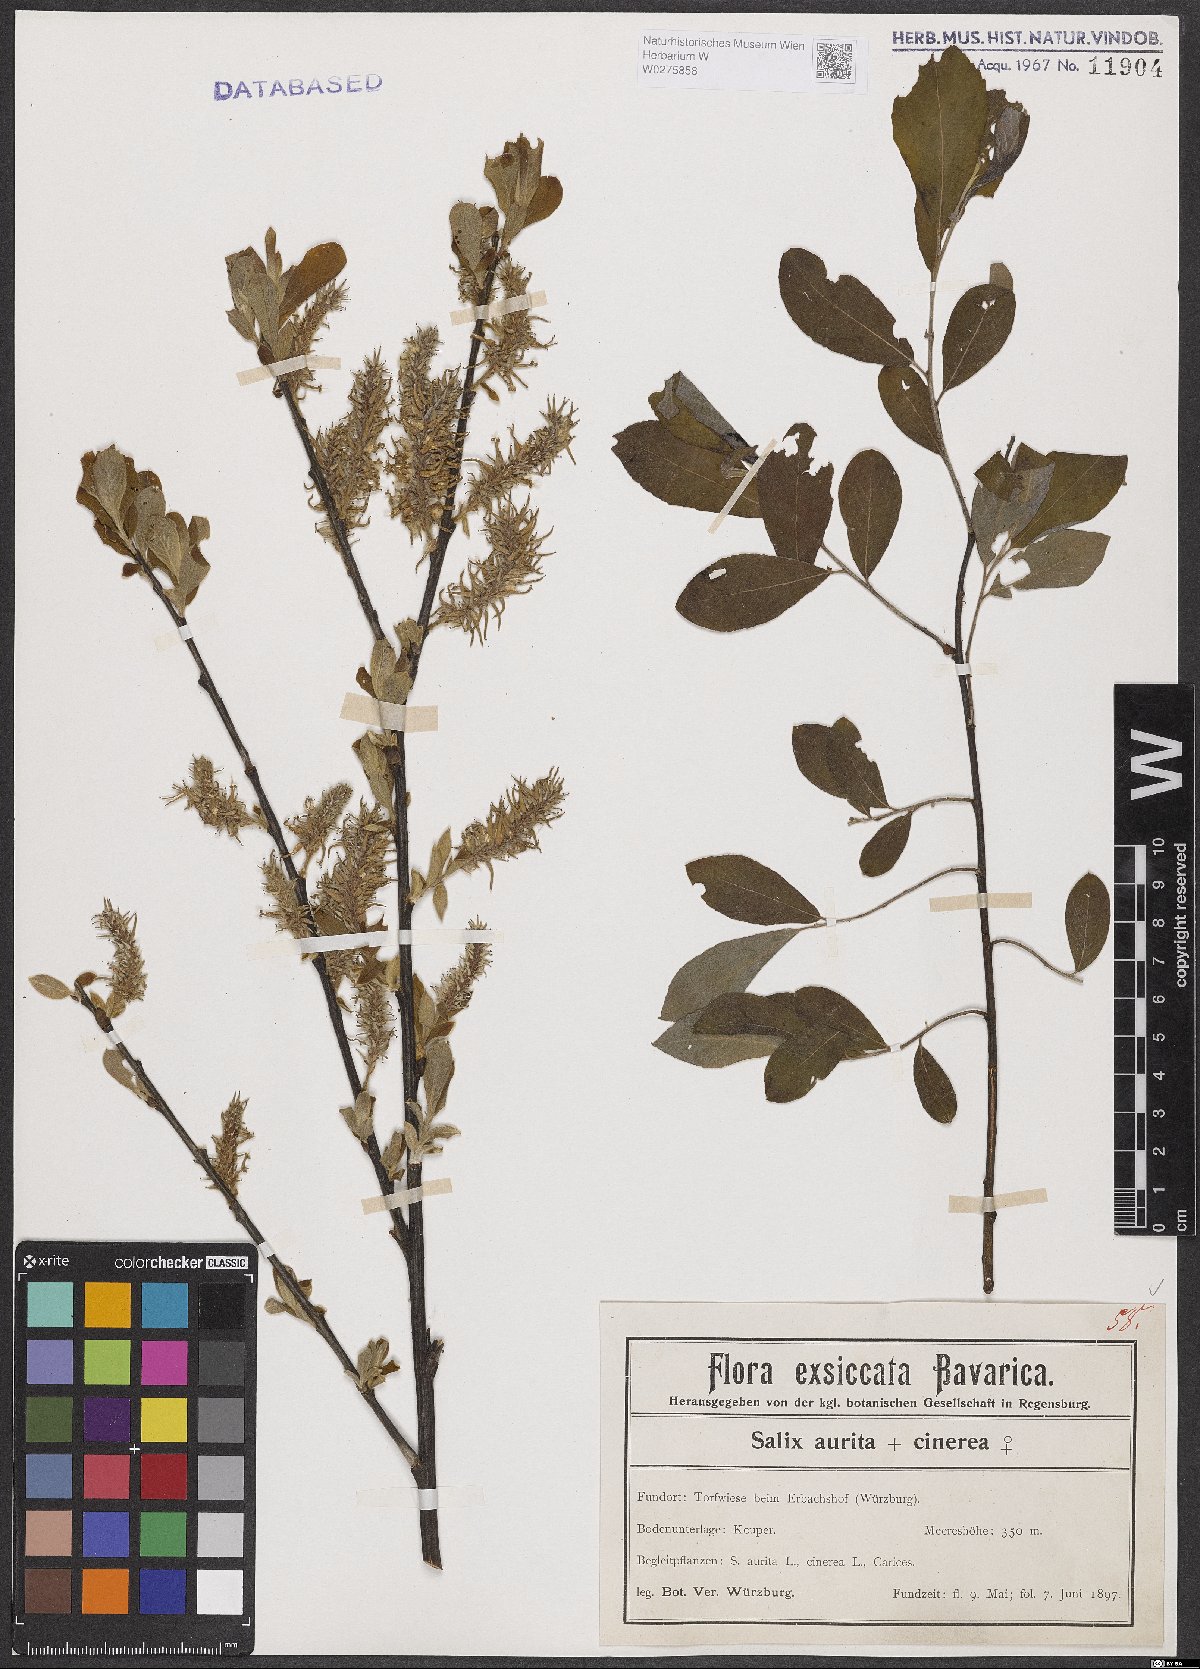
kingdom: Plantae
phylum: Tracheophyta
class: Magnoliopsida
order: Malpighiales
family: Salicaceae
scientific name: Salicaceae
